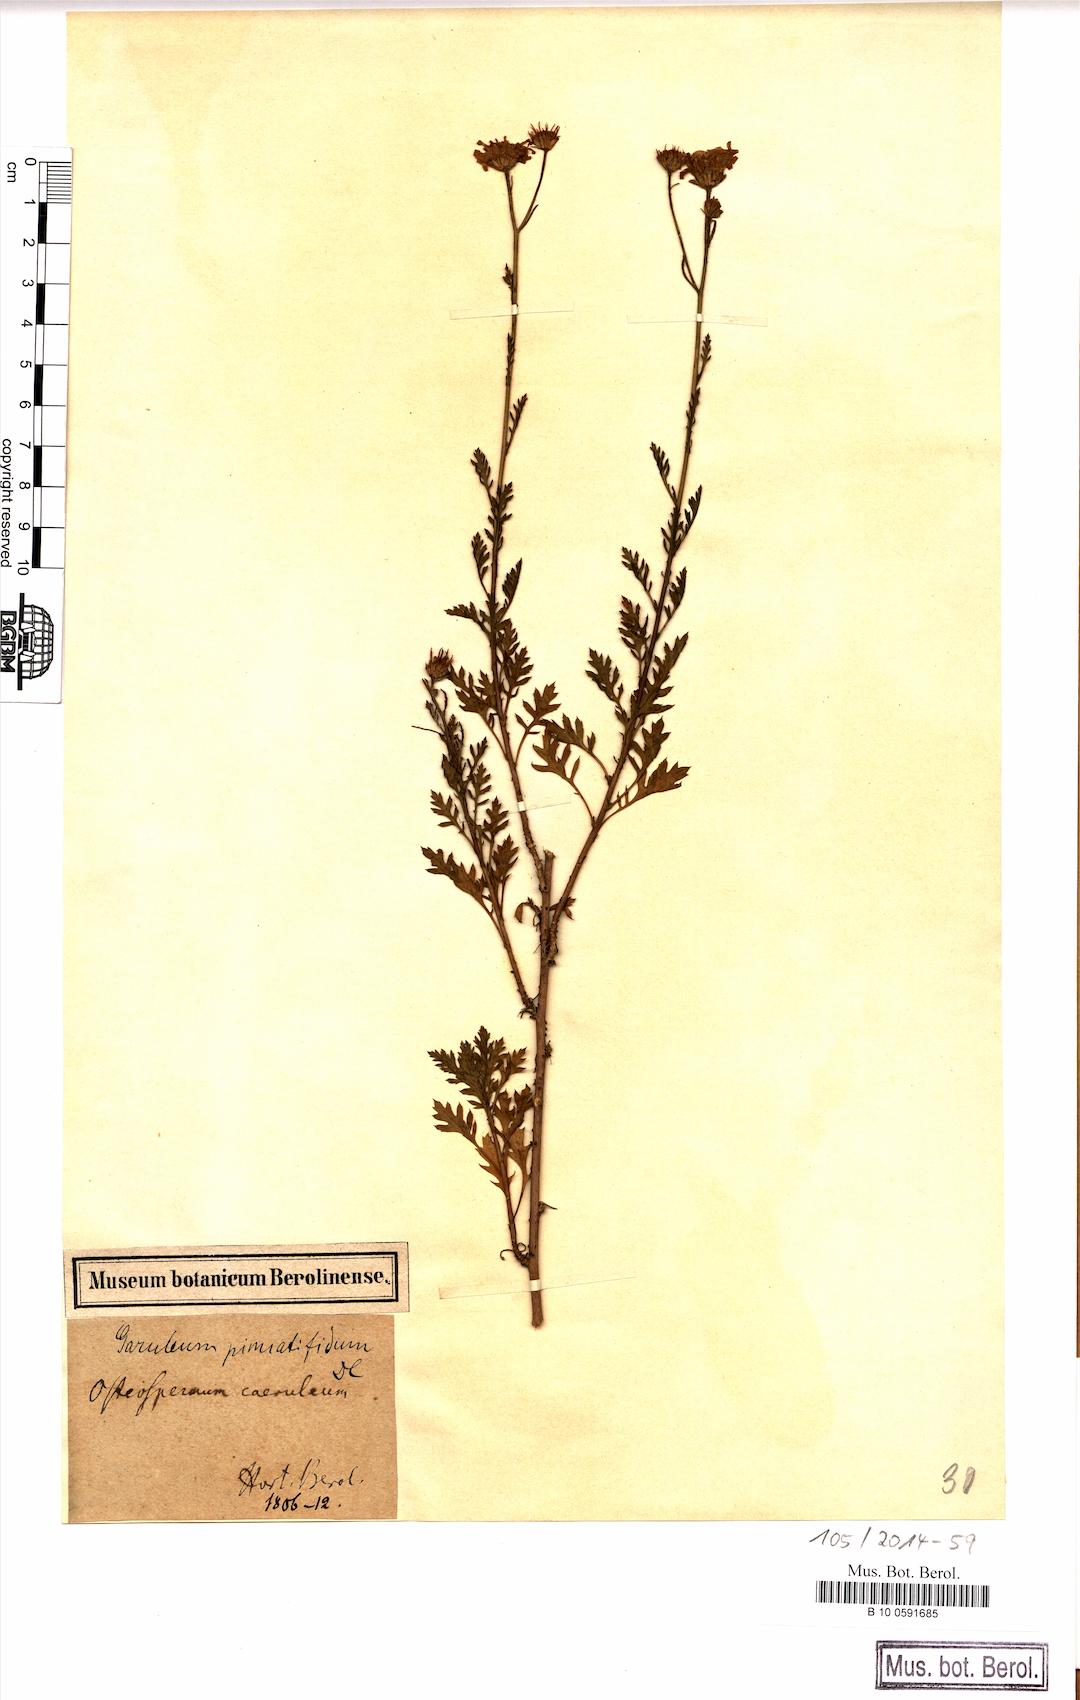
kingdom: Plantae
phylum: Tracheophyta
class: Magnoliopsida
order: Asterales
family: Asteraceae
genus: Garuleum
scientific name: Garuleum pinnatifidum
